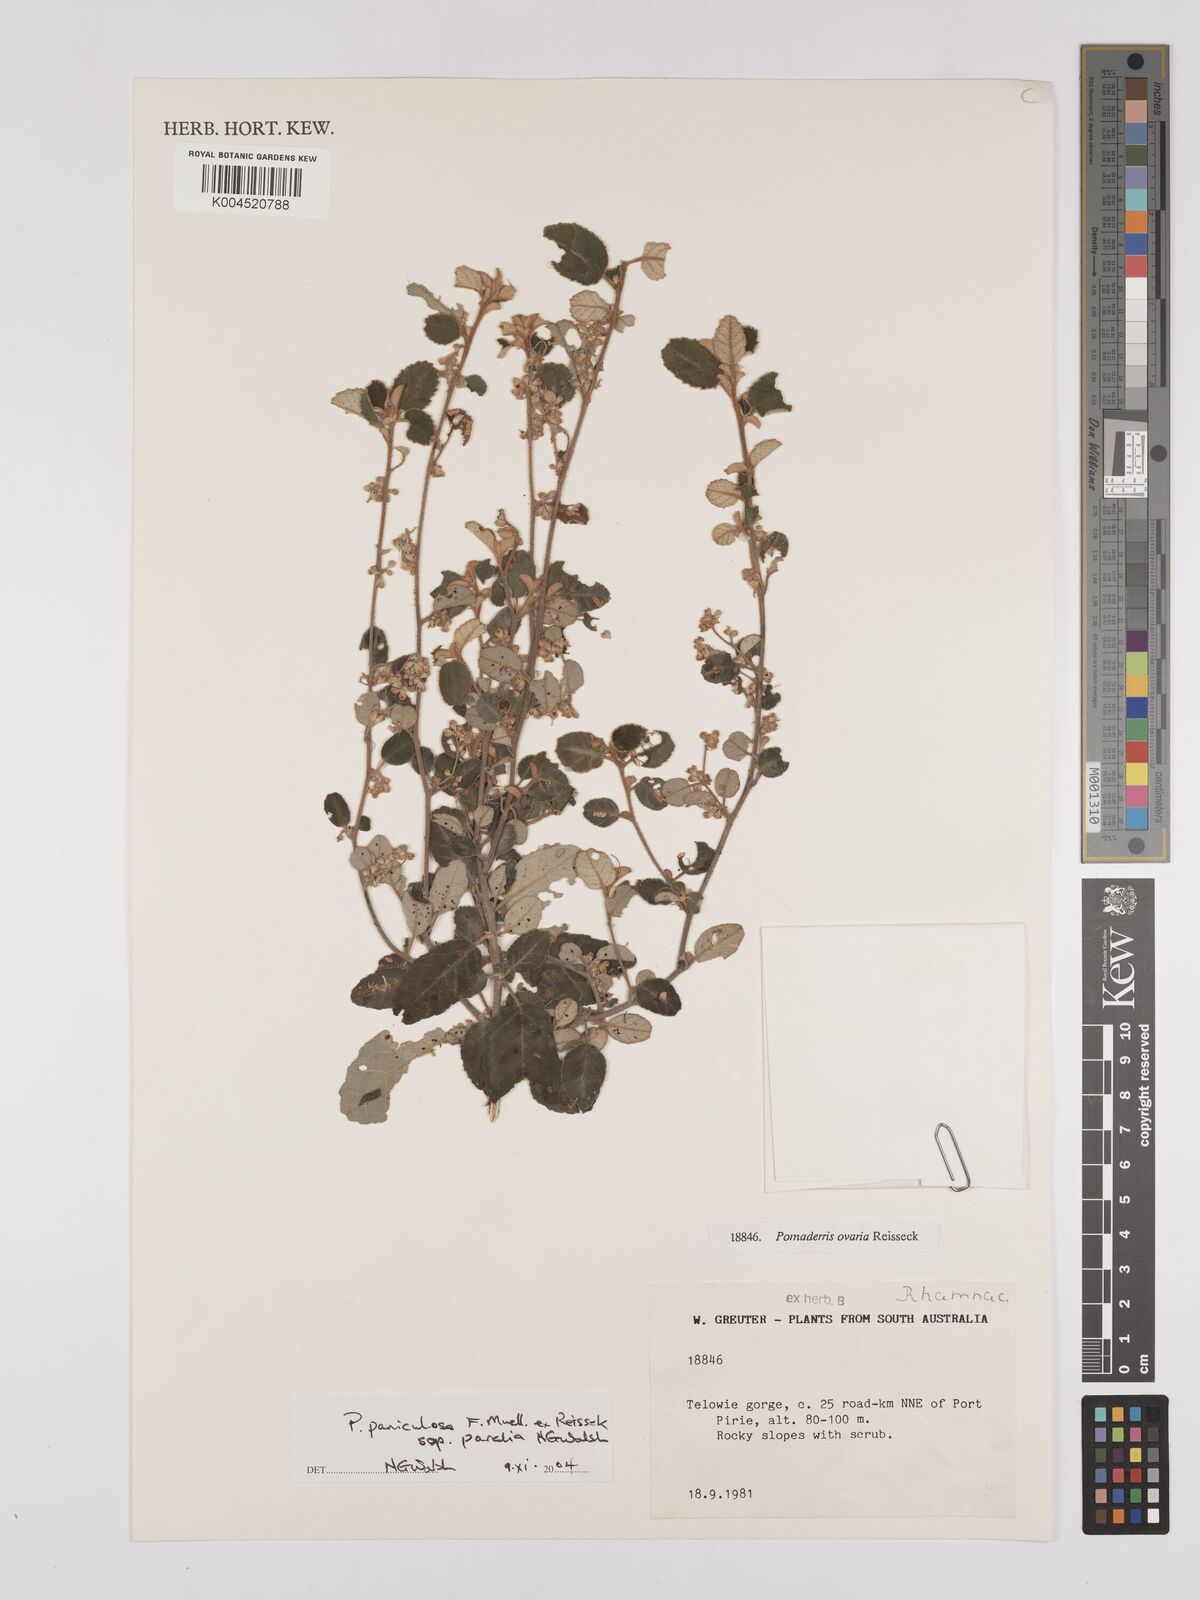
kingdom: Plantae
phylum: Tracheophyta
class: Magnoliopsida
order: Rosales
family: Rhamnaceae
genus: Pomaderris
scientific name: Pomaderris paniculosa
